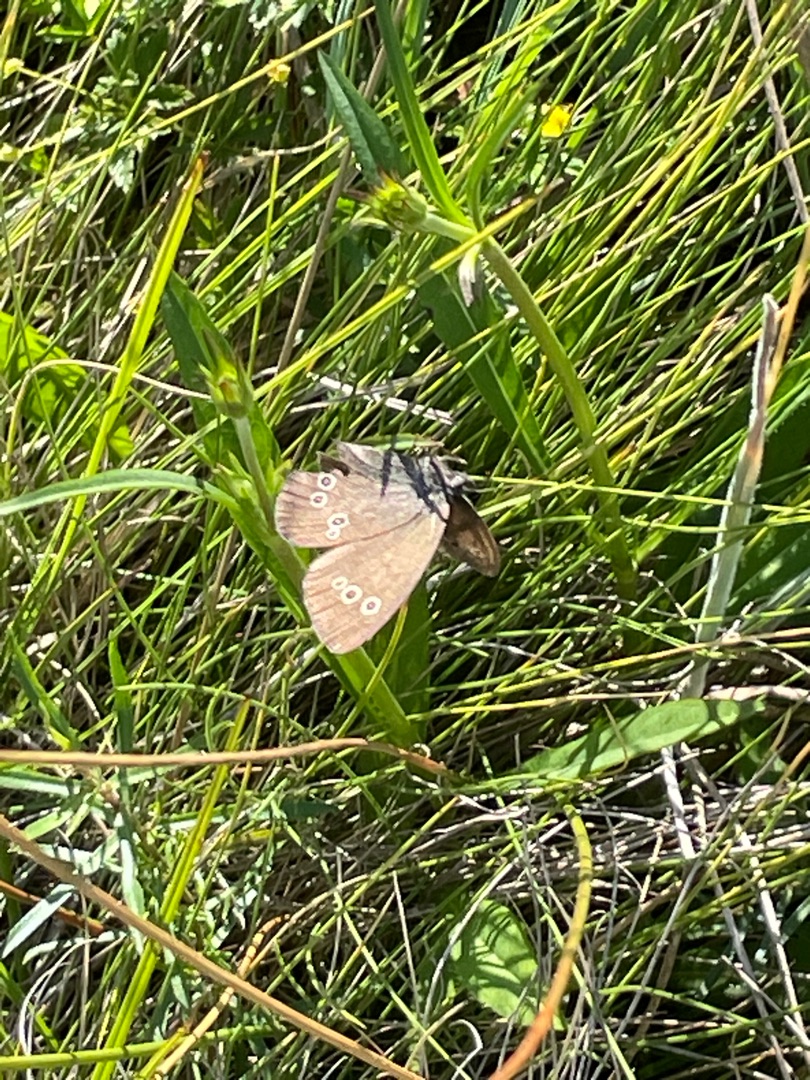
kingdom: Animalia
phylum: Arthropoda
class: Insecta
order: Lepidoptera
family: Nymphalidae
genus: Aphantopus
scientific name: Aphantopus hyperantus
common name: Engrandøje
